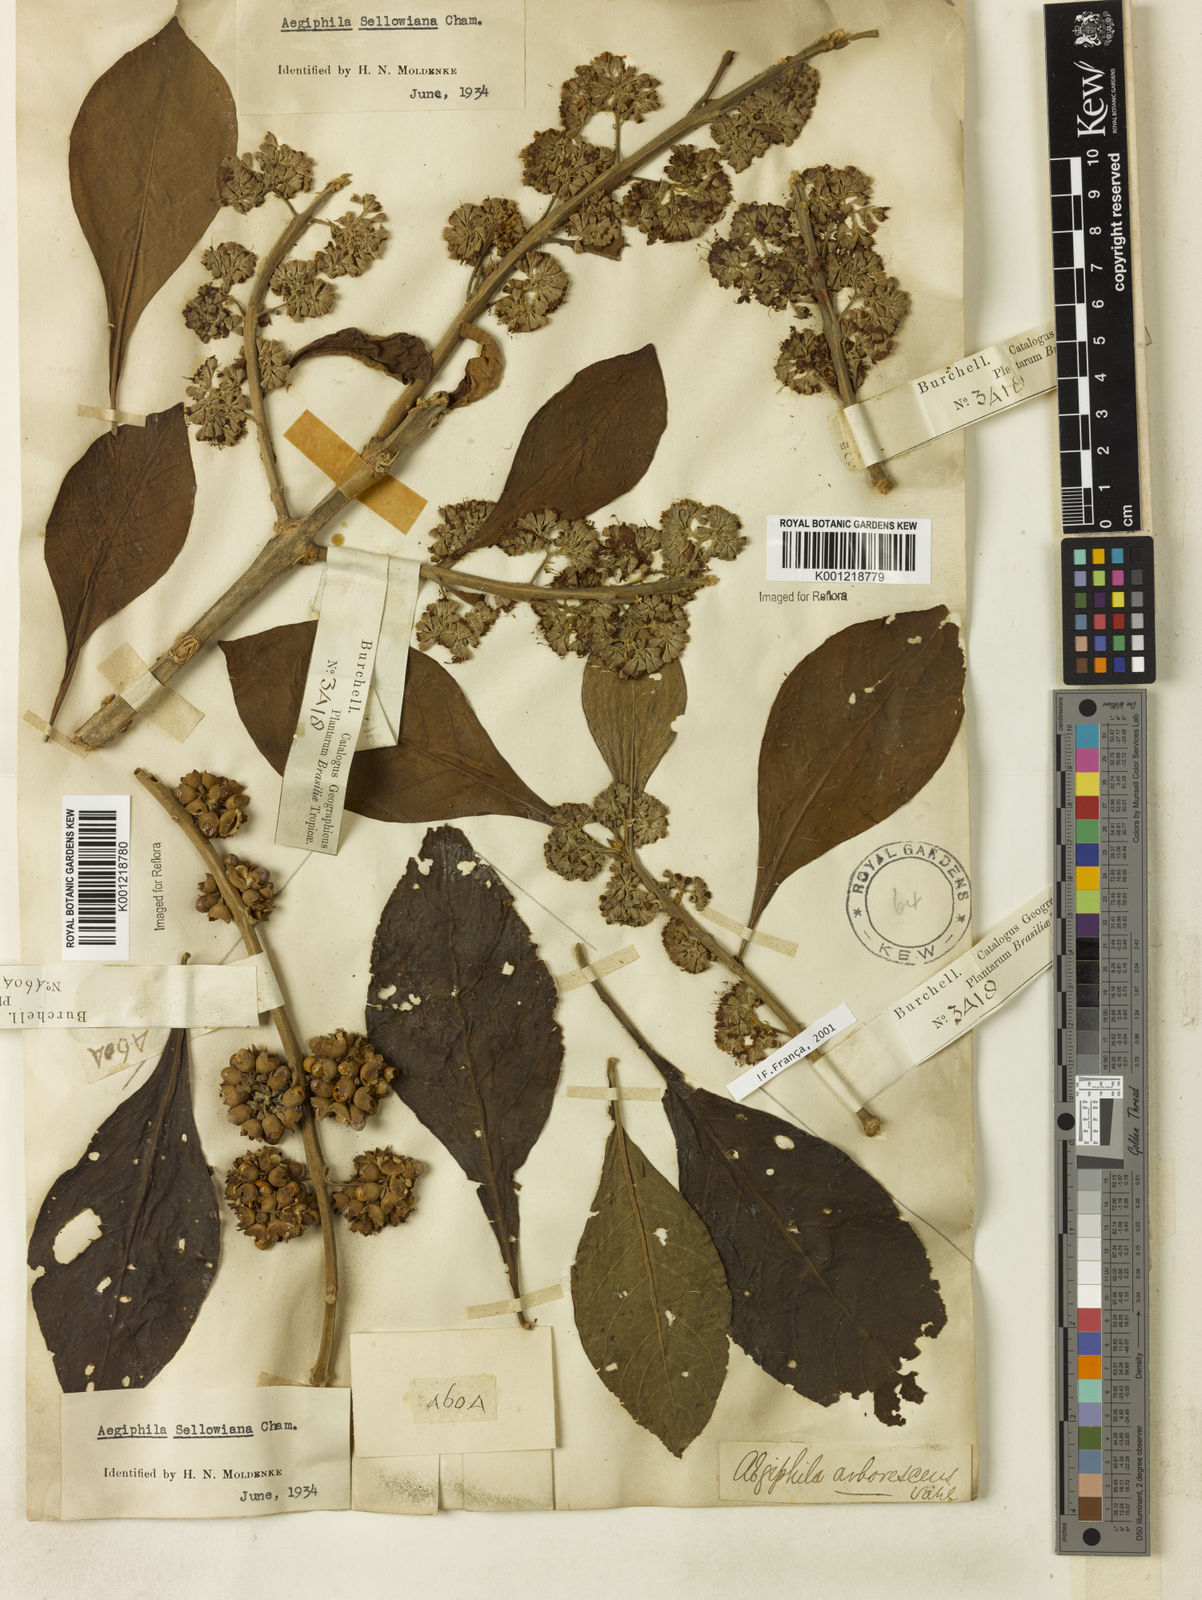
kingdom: Plantae
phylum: Tracheophyta
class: Magnoliopsida
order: Lamiales
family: Lamiaceae
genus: Aegiphila
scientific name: Aegiphila verticillata
